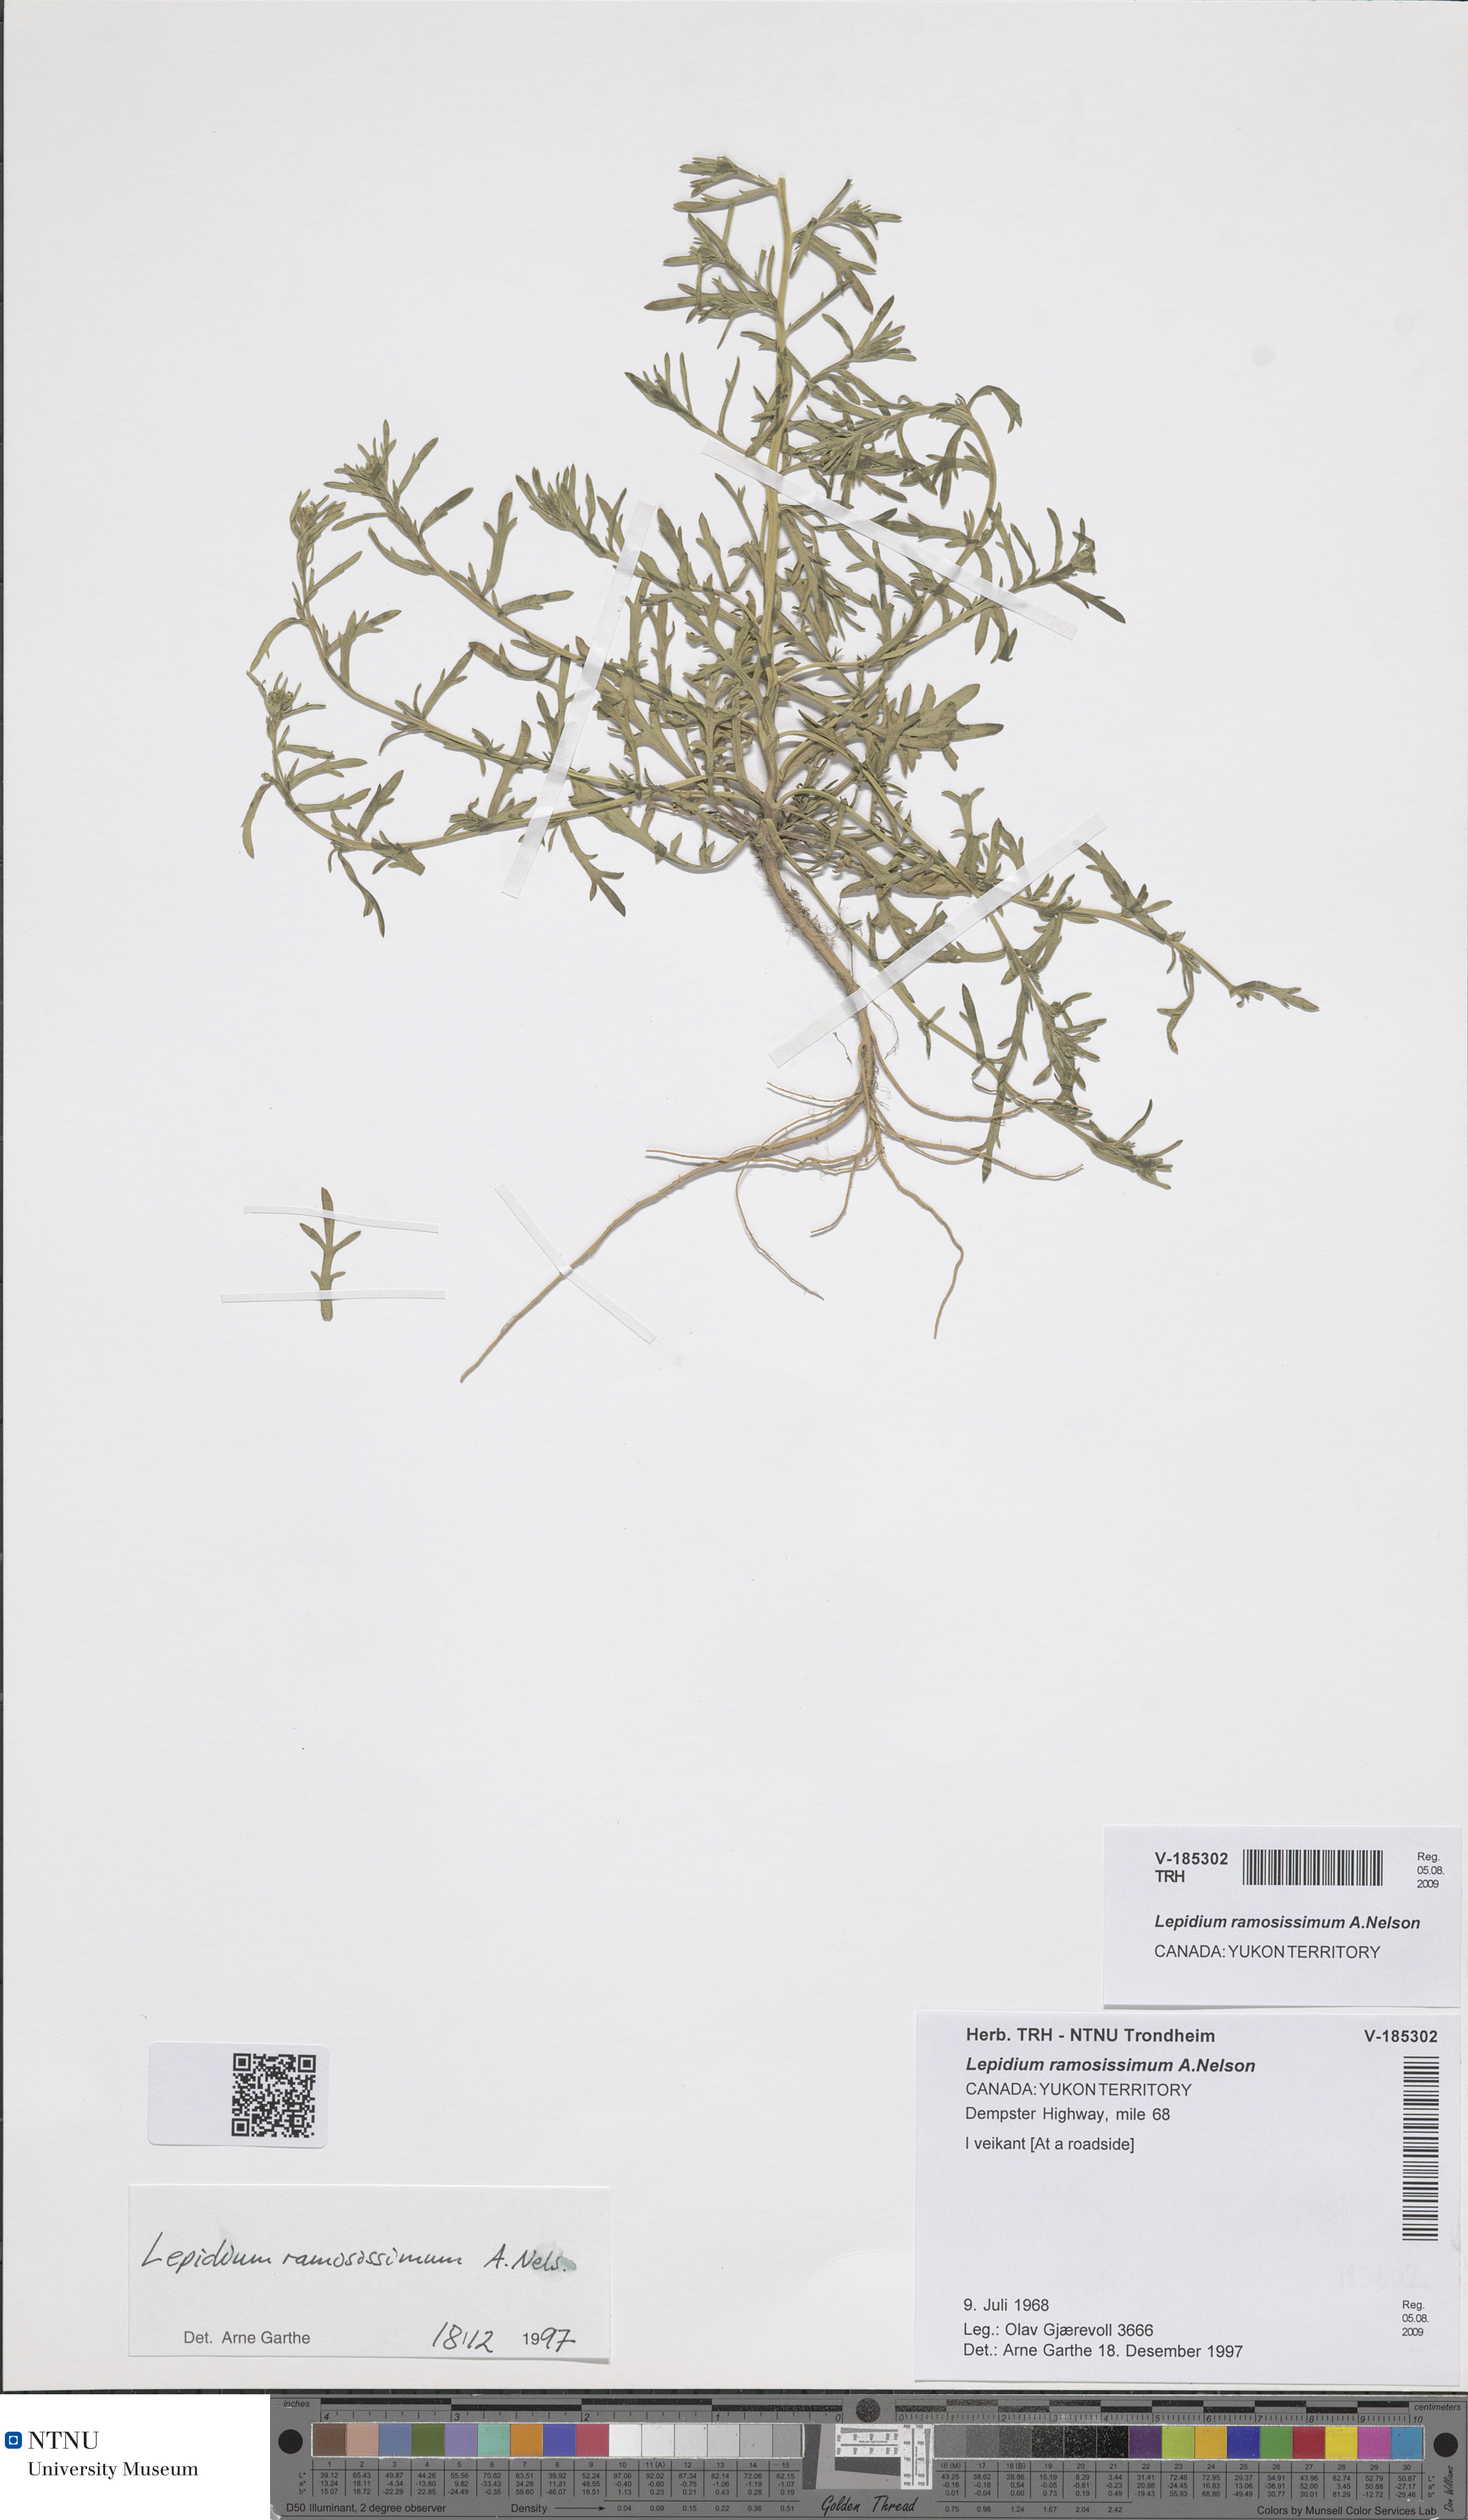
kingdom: Plantae
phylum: Tracheophyta
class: Magnoliopsida
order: Brassicales
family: Brassicaceae
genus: Lepidium
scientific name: Lepidium ramosissimum
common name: Bushy peppergrass
